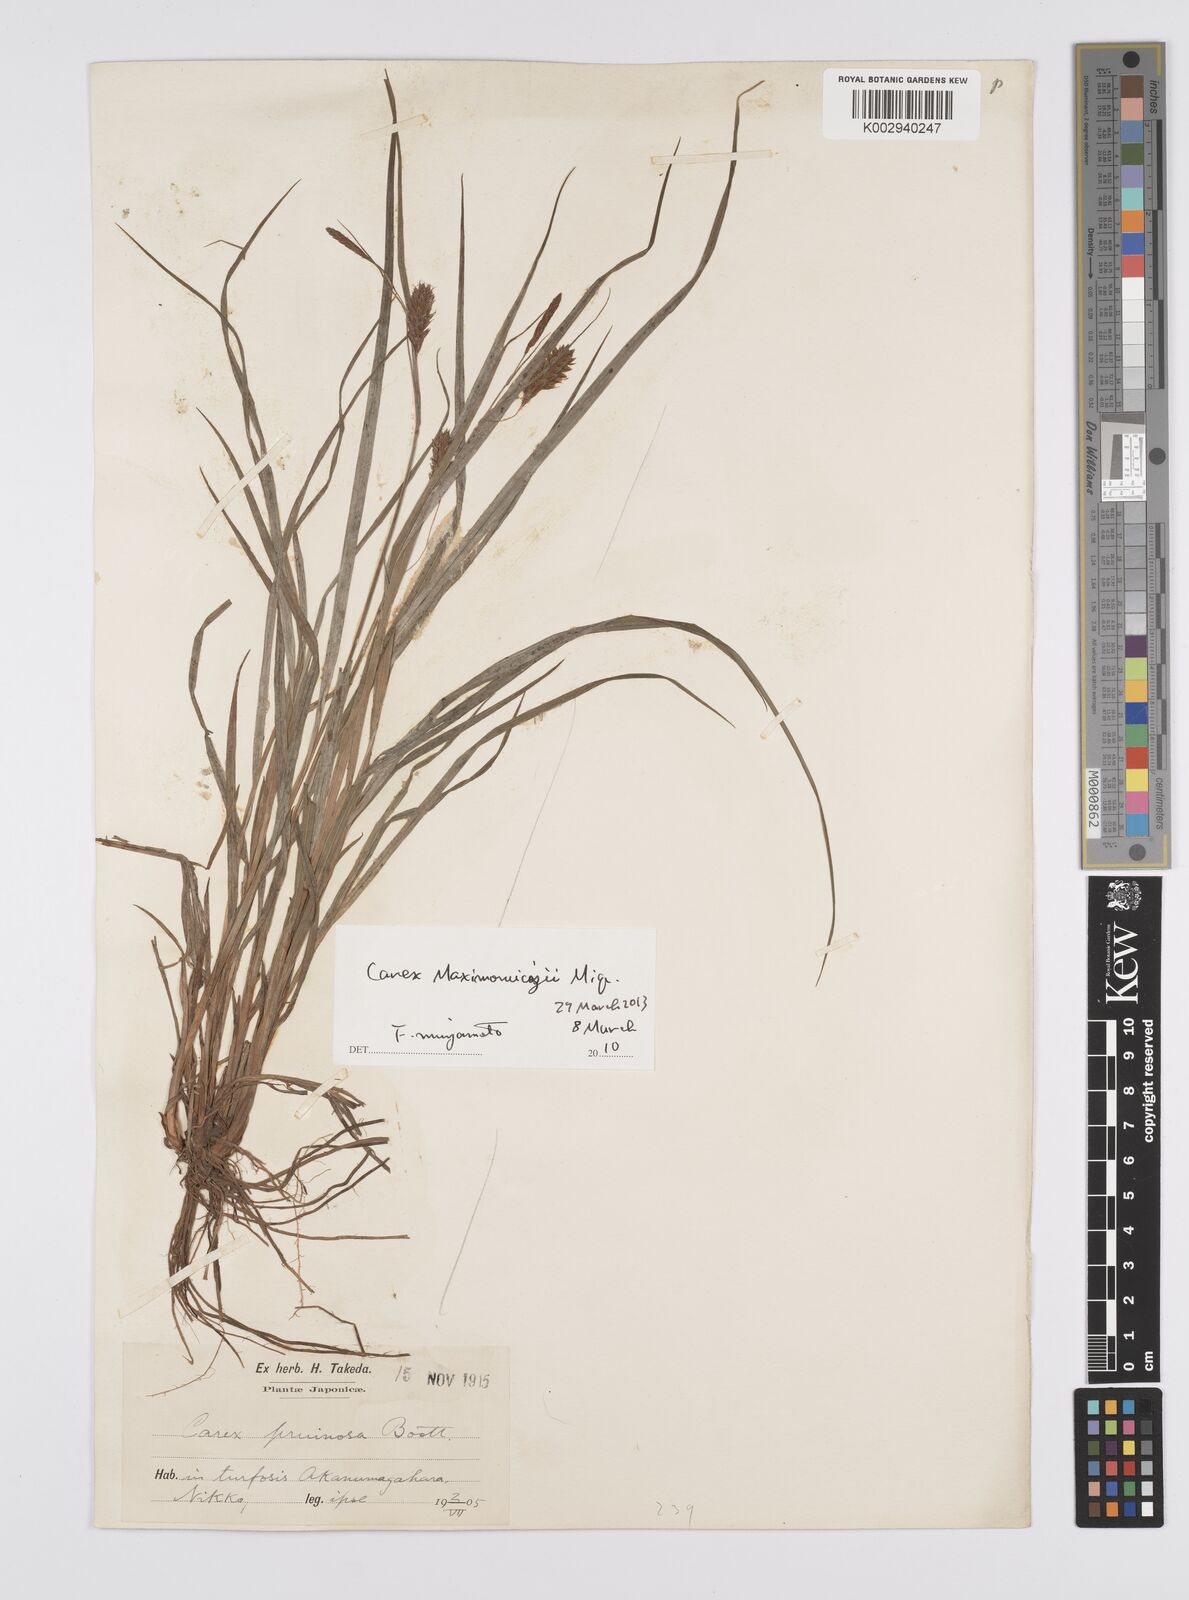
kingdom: Plantae
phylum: Tracheophyta
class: Liliopsida
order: Poales
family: Cyperaceae
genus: Carex
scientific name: Carex pruinosa
